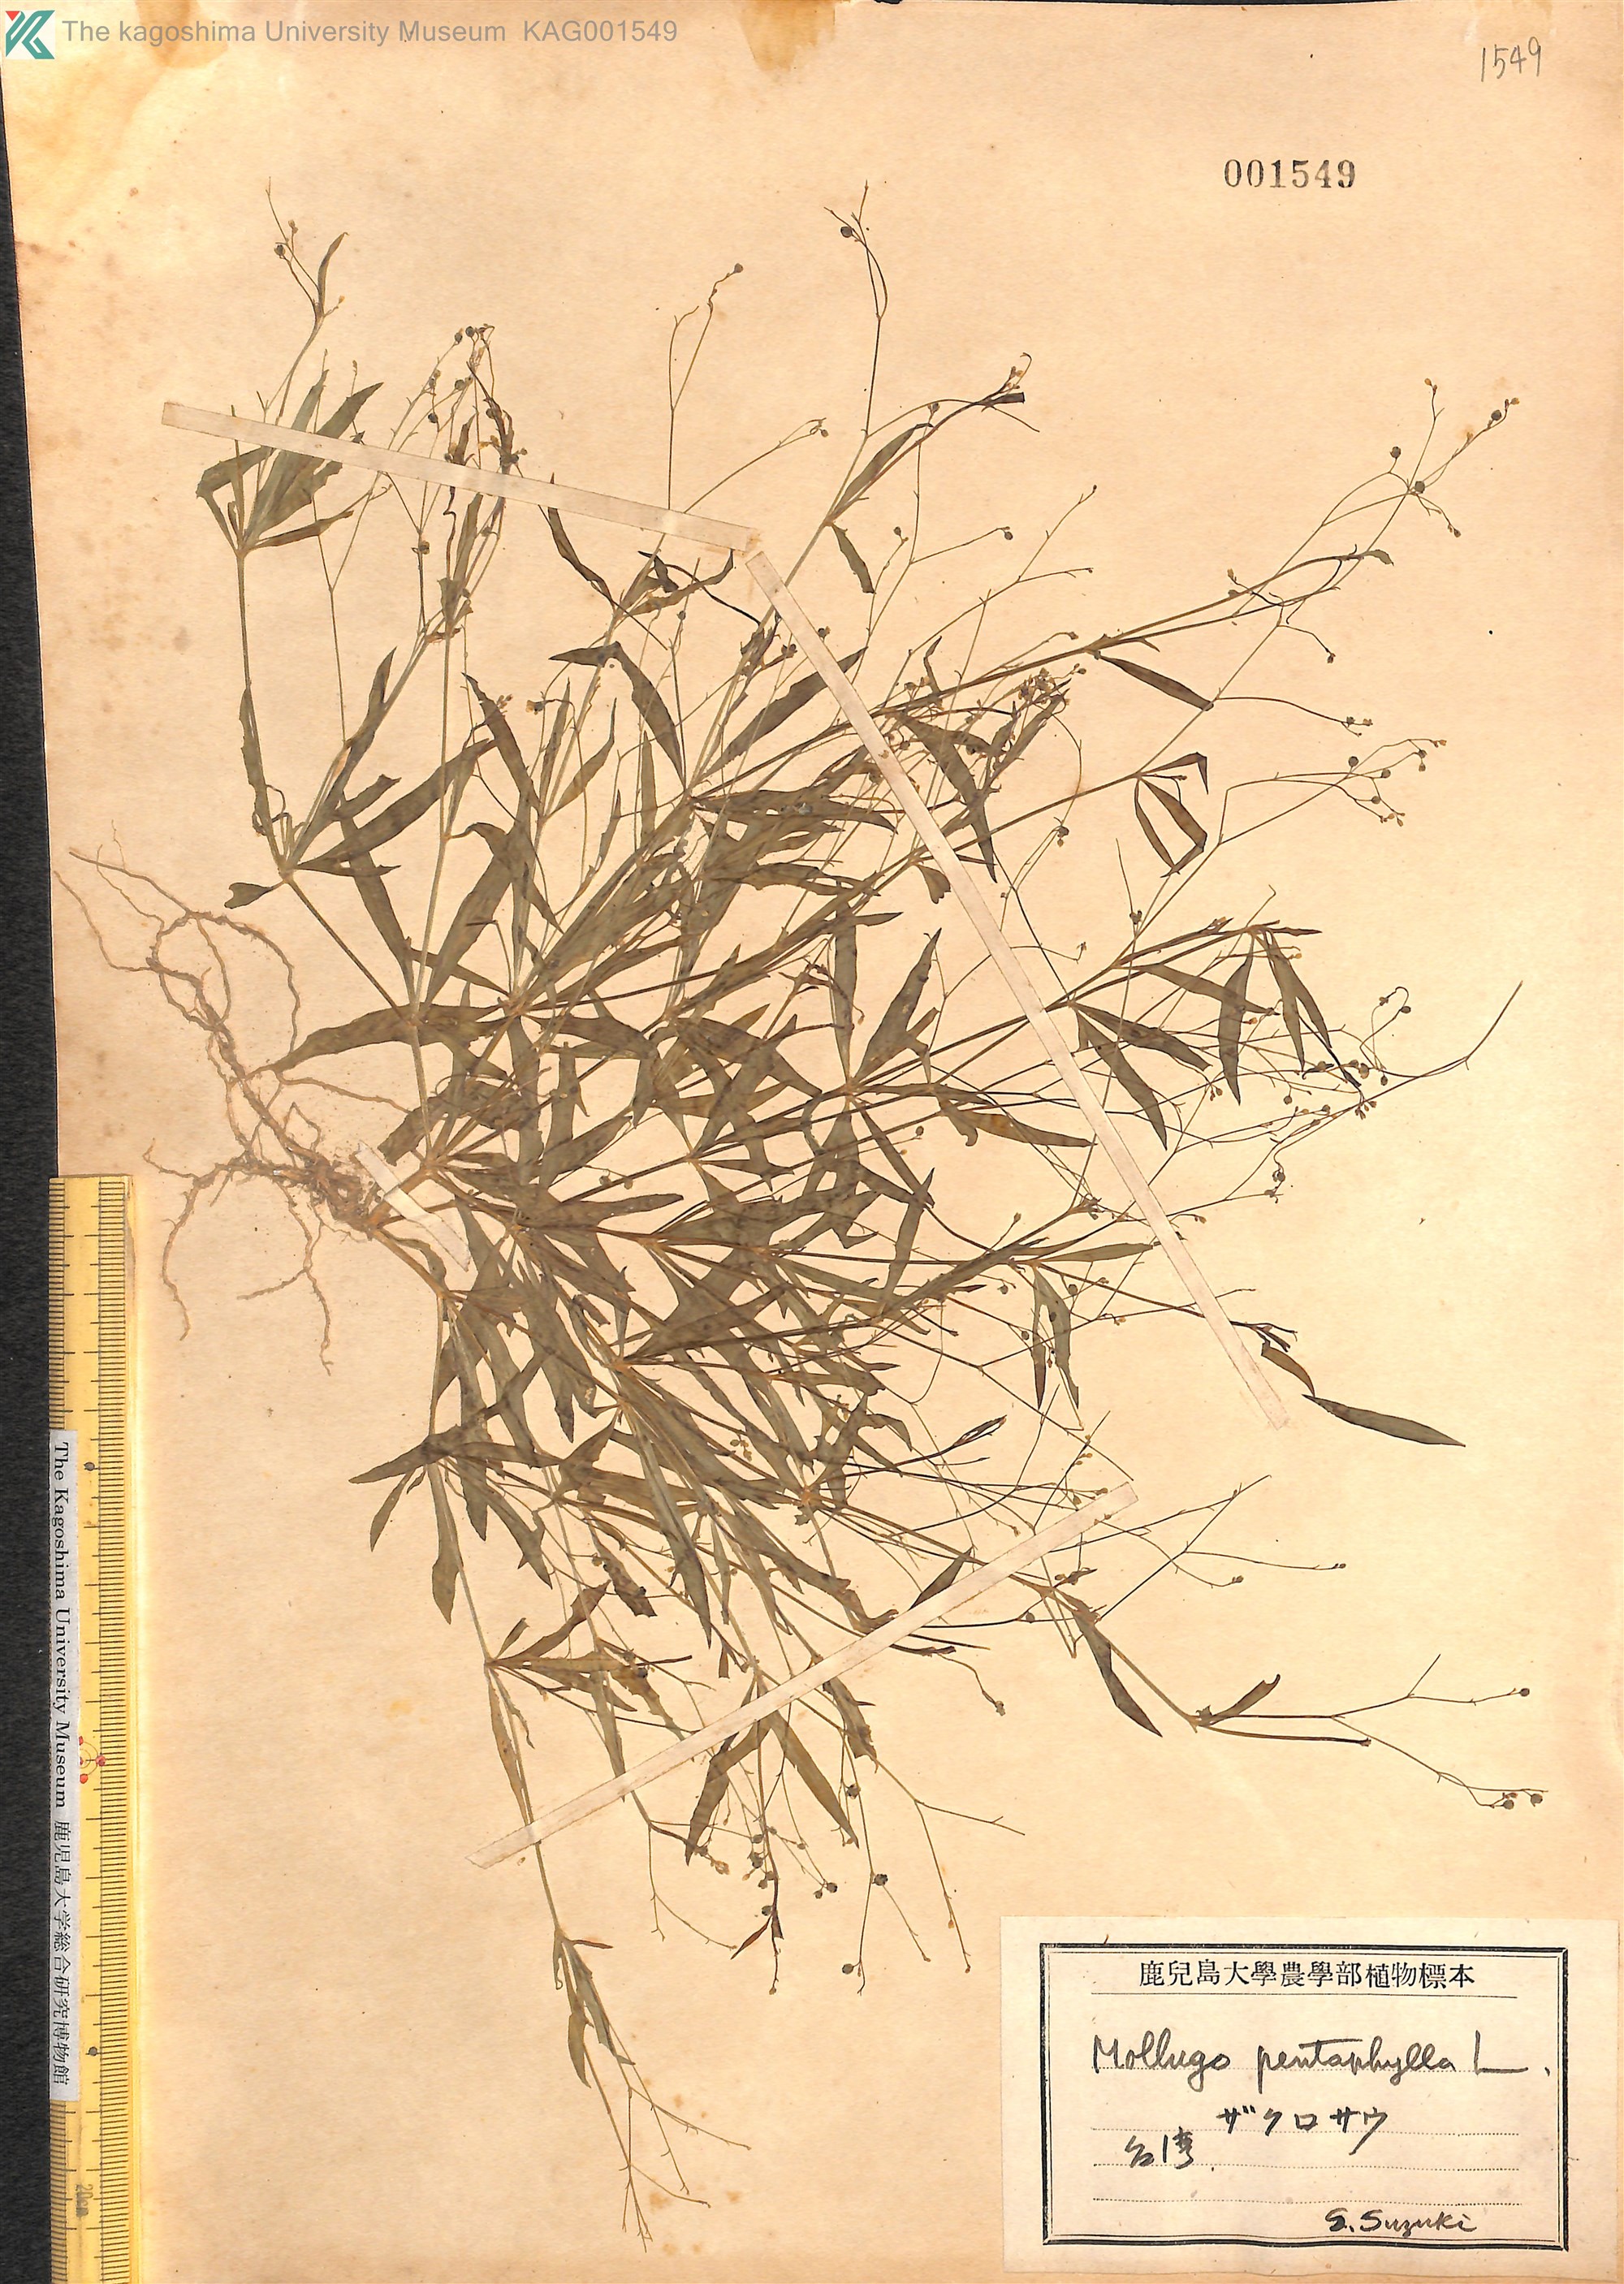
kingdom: Plantae
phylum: Tracheophyta
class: Magnoliopsida
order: Caryophyllales
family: Molluginaceae
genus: Trigastrotheca
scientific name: Trigastrotheca pentaphylla
